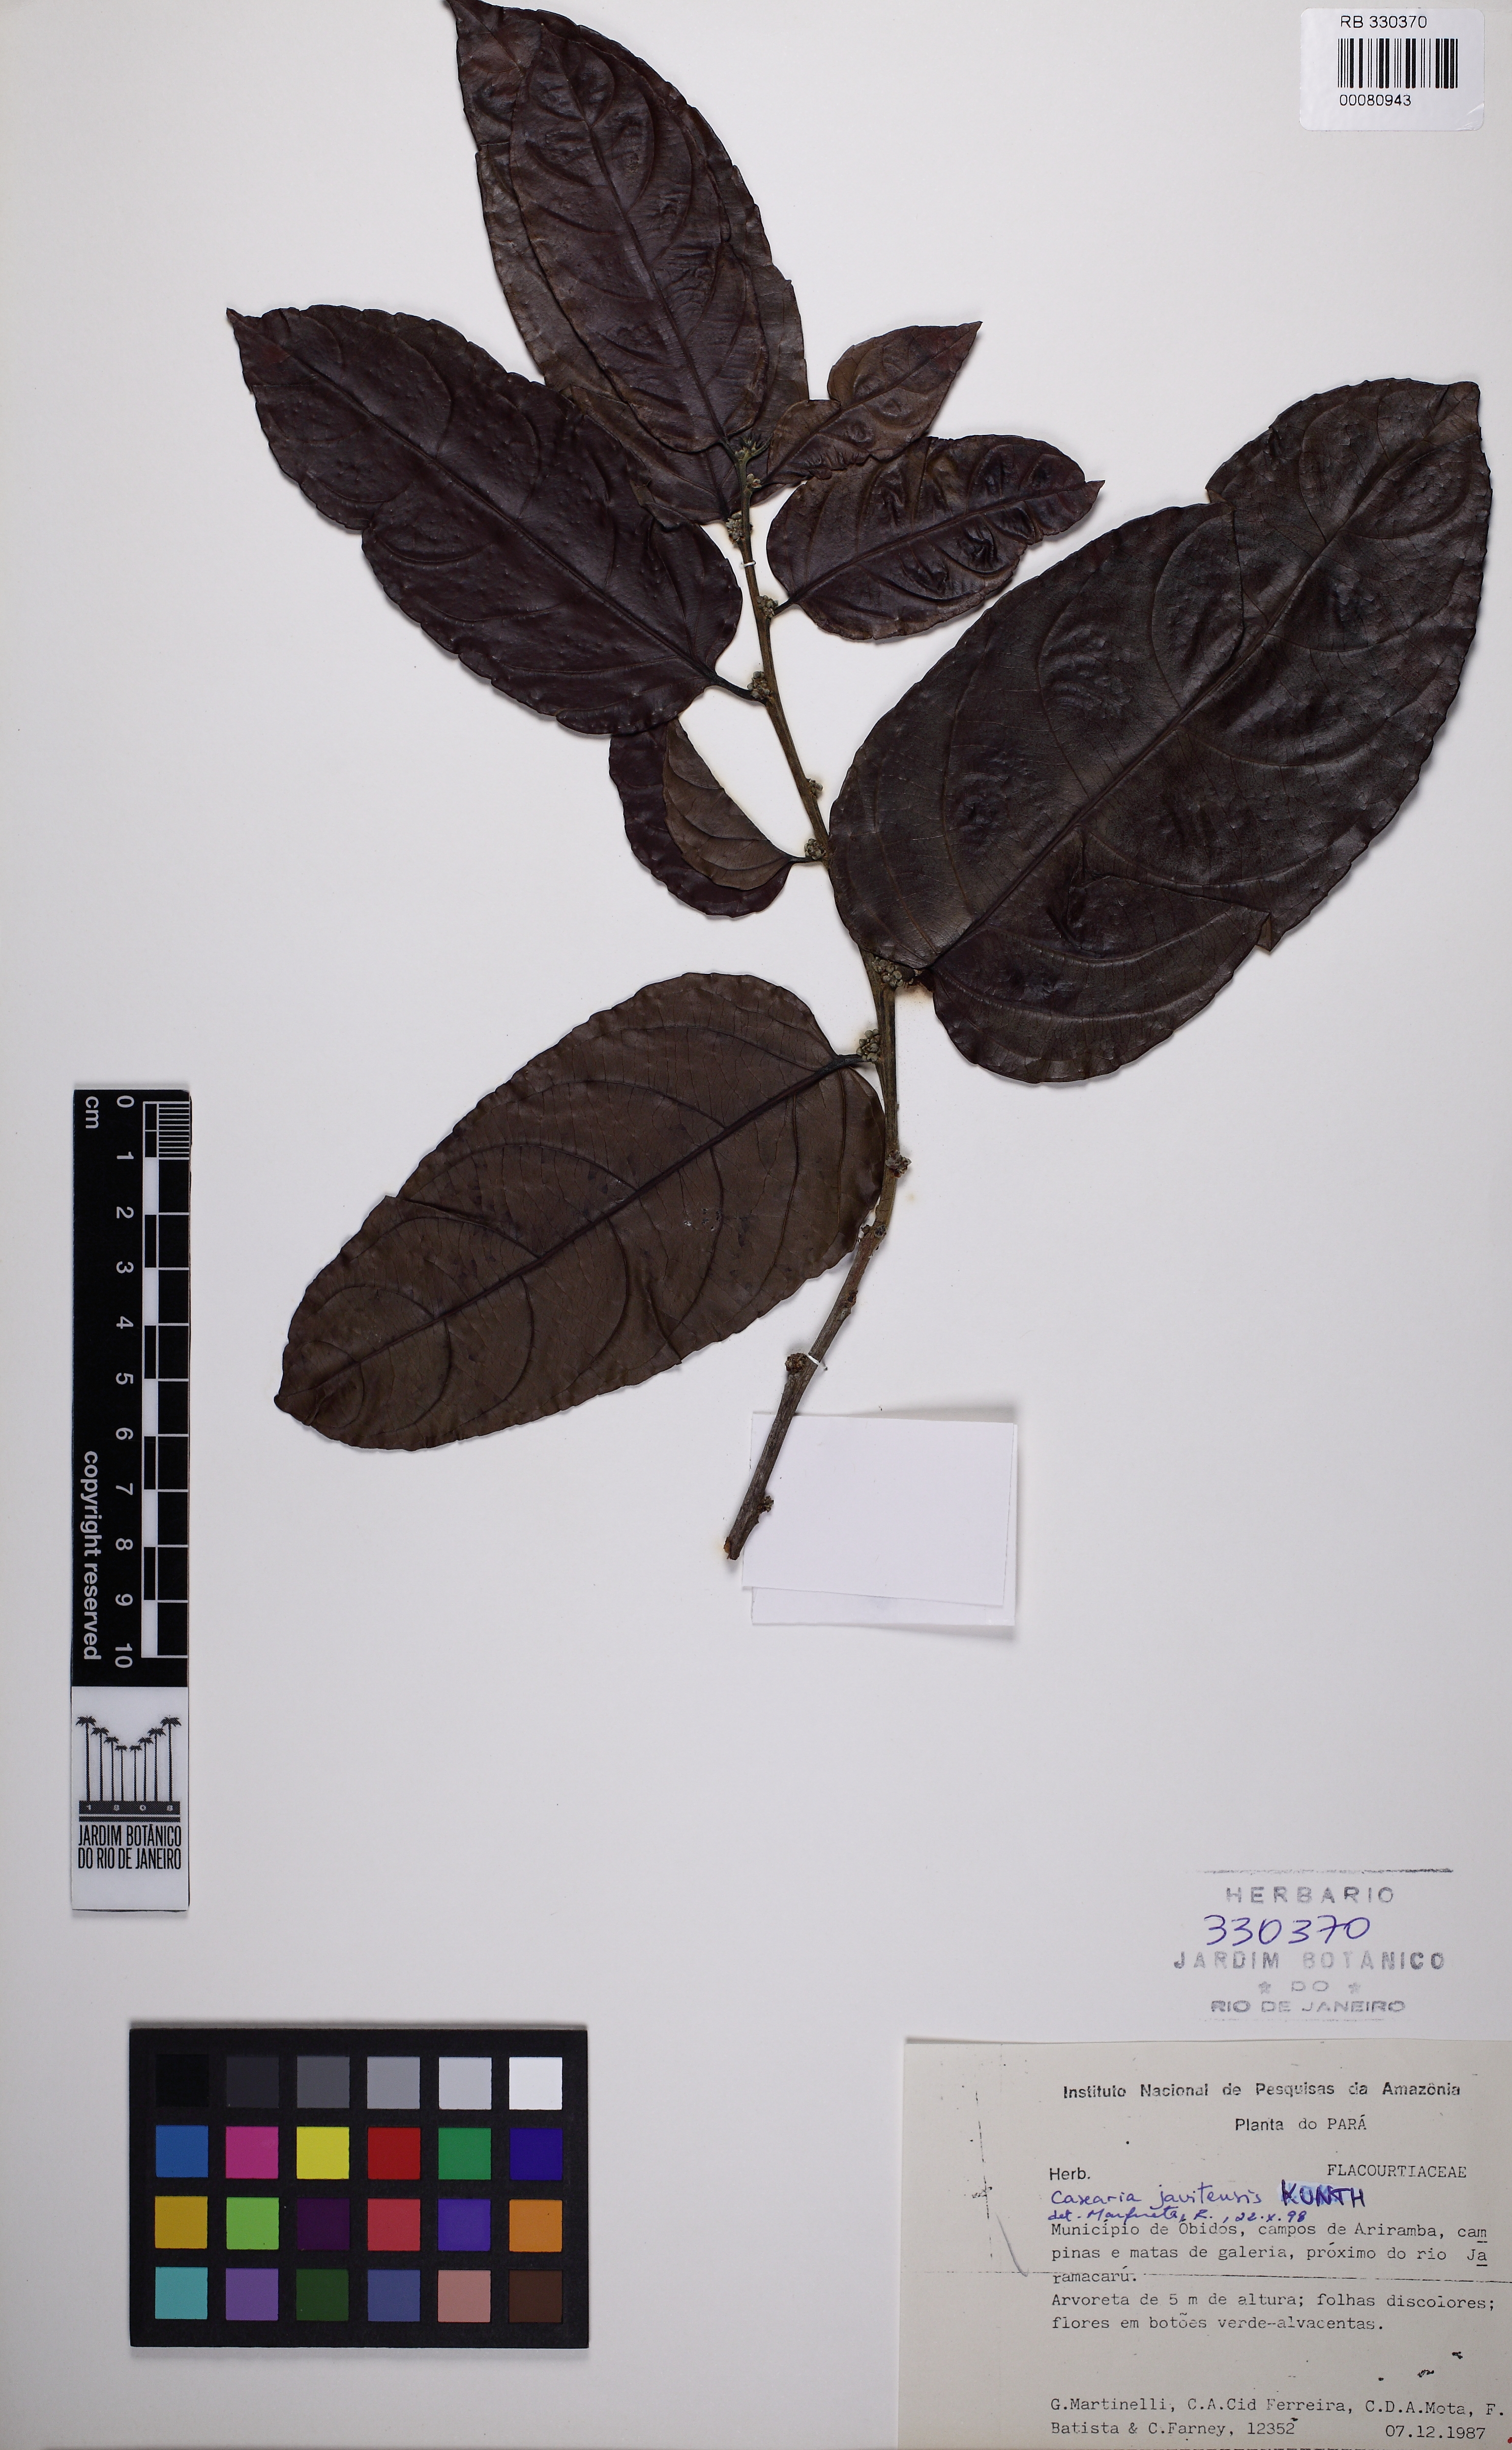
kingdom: Plantae
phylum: Tracheophyta
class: Magnoliopsida
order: Malpighiales
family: Salicaceae
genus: Piparea
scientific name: Piparea multiflora
